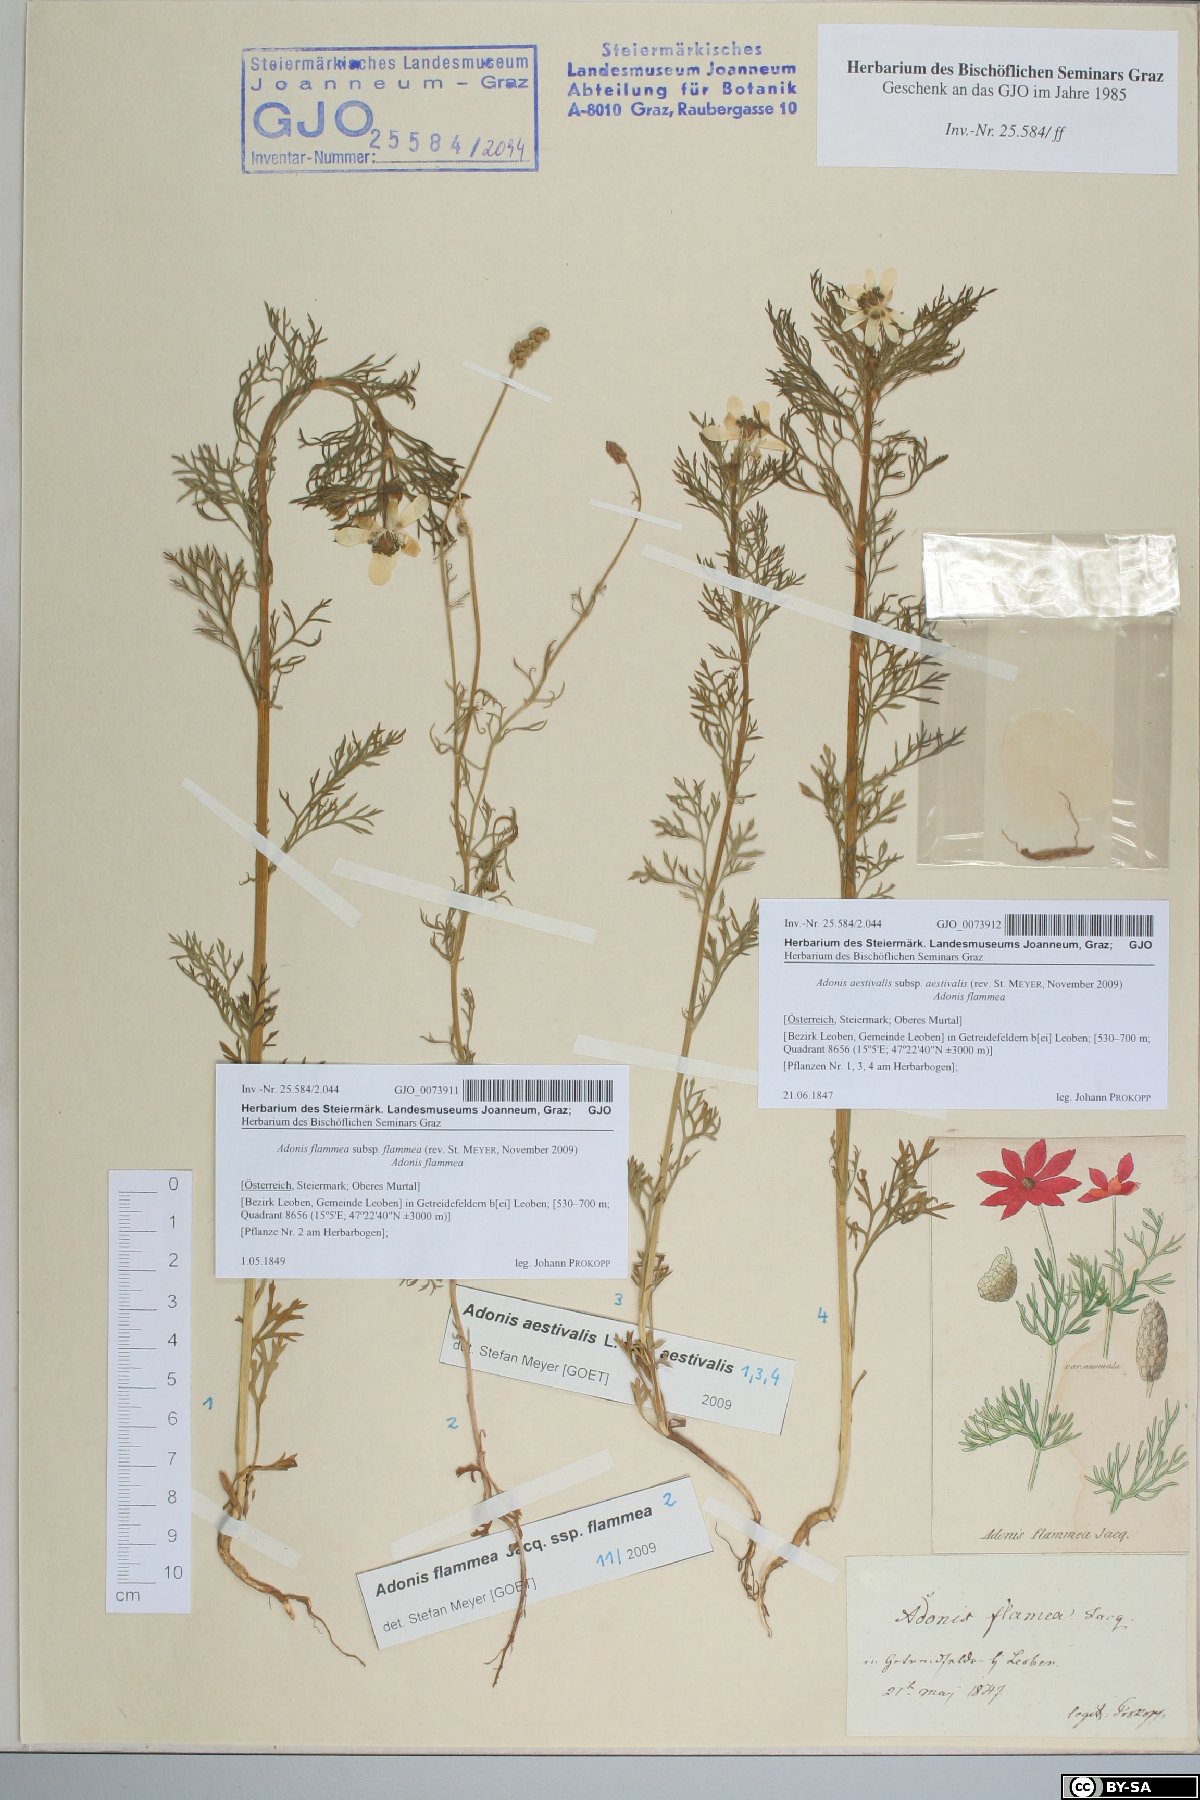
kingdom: Plantae
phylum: Tracheophyta
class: Magnoliopsida
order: Ranunculales
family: Ranunculaceae
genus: Adonis
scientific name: Adonis aestivalis
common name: Summer pheasant's-eye
